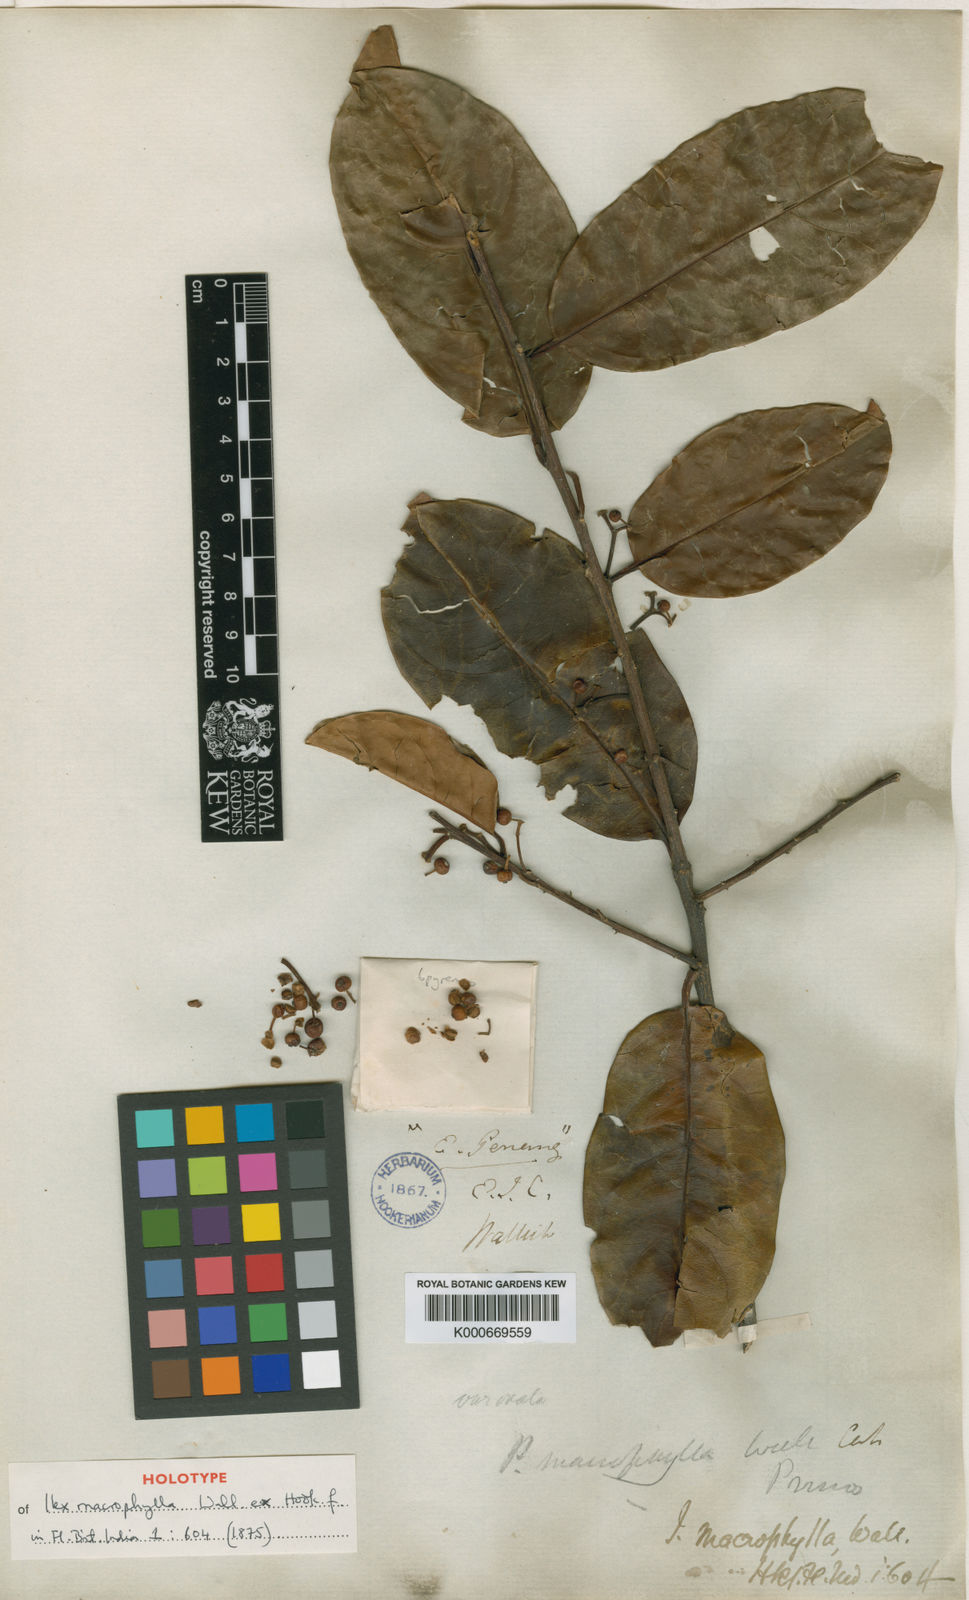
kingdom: Plantae
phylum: Tracheophyta
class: Magnoliopsida
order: Aquifoliales
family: Aquifoliaceae
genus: Ilex
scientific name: Ilex
